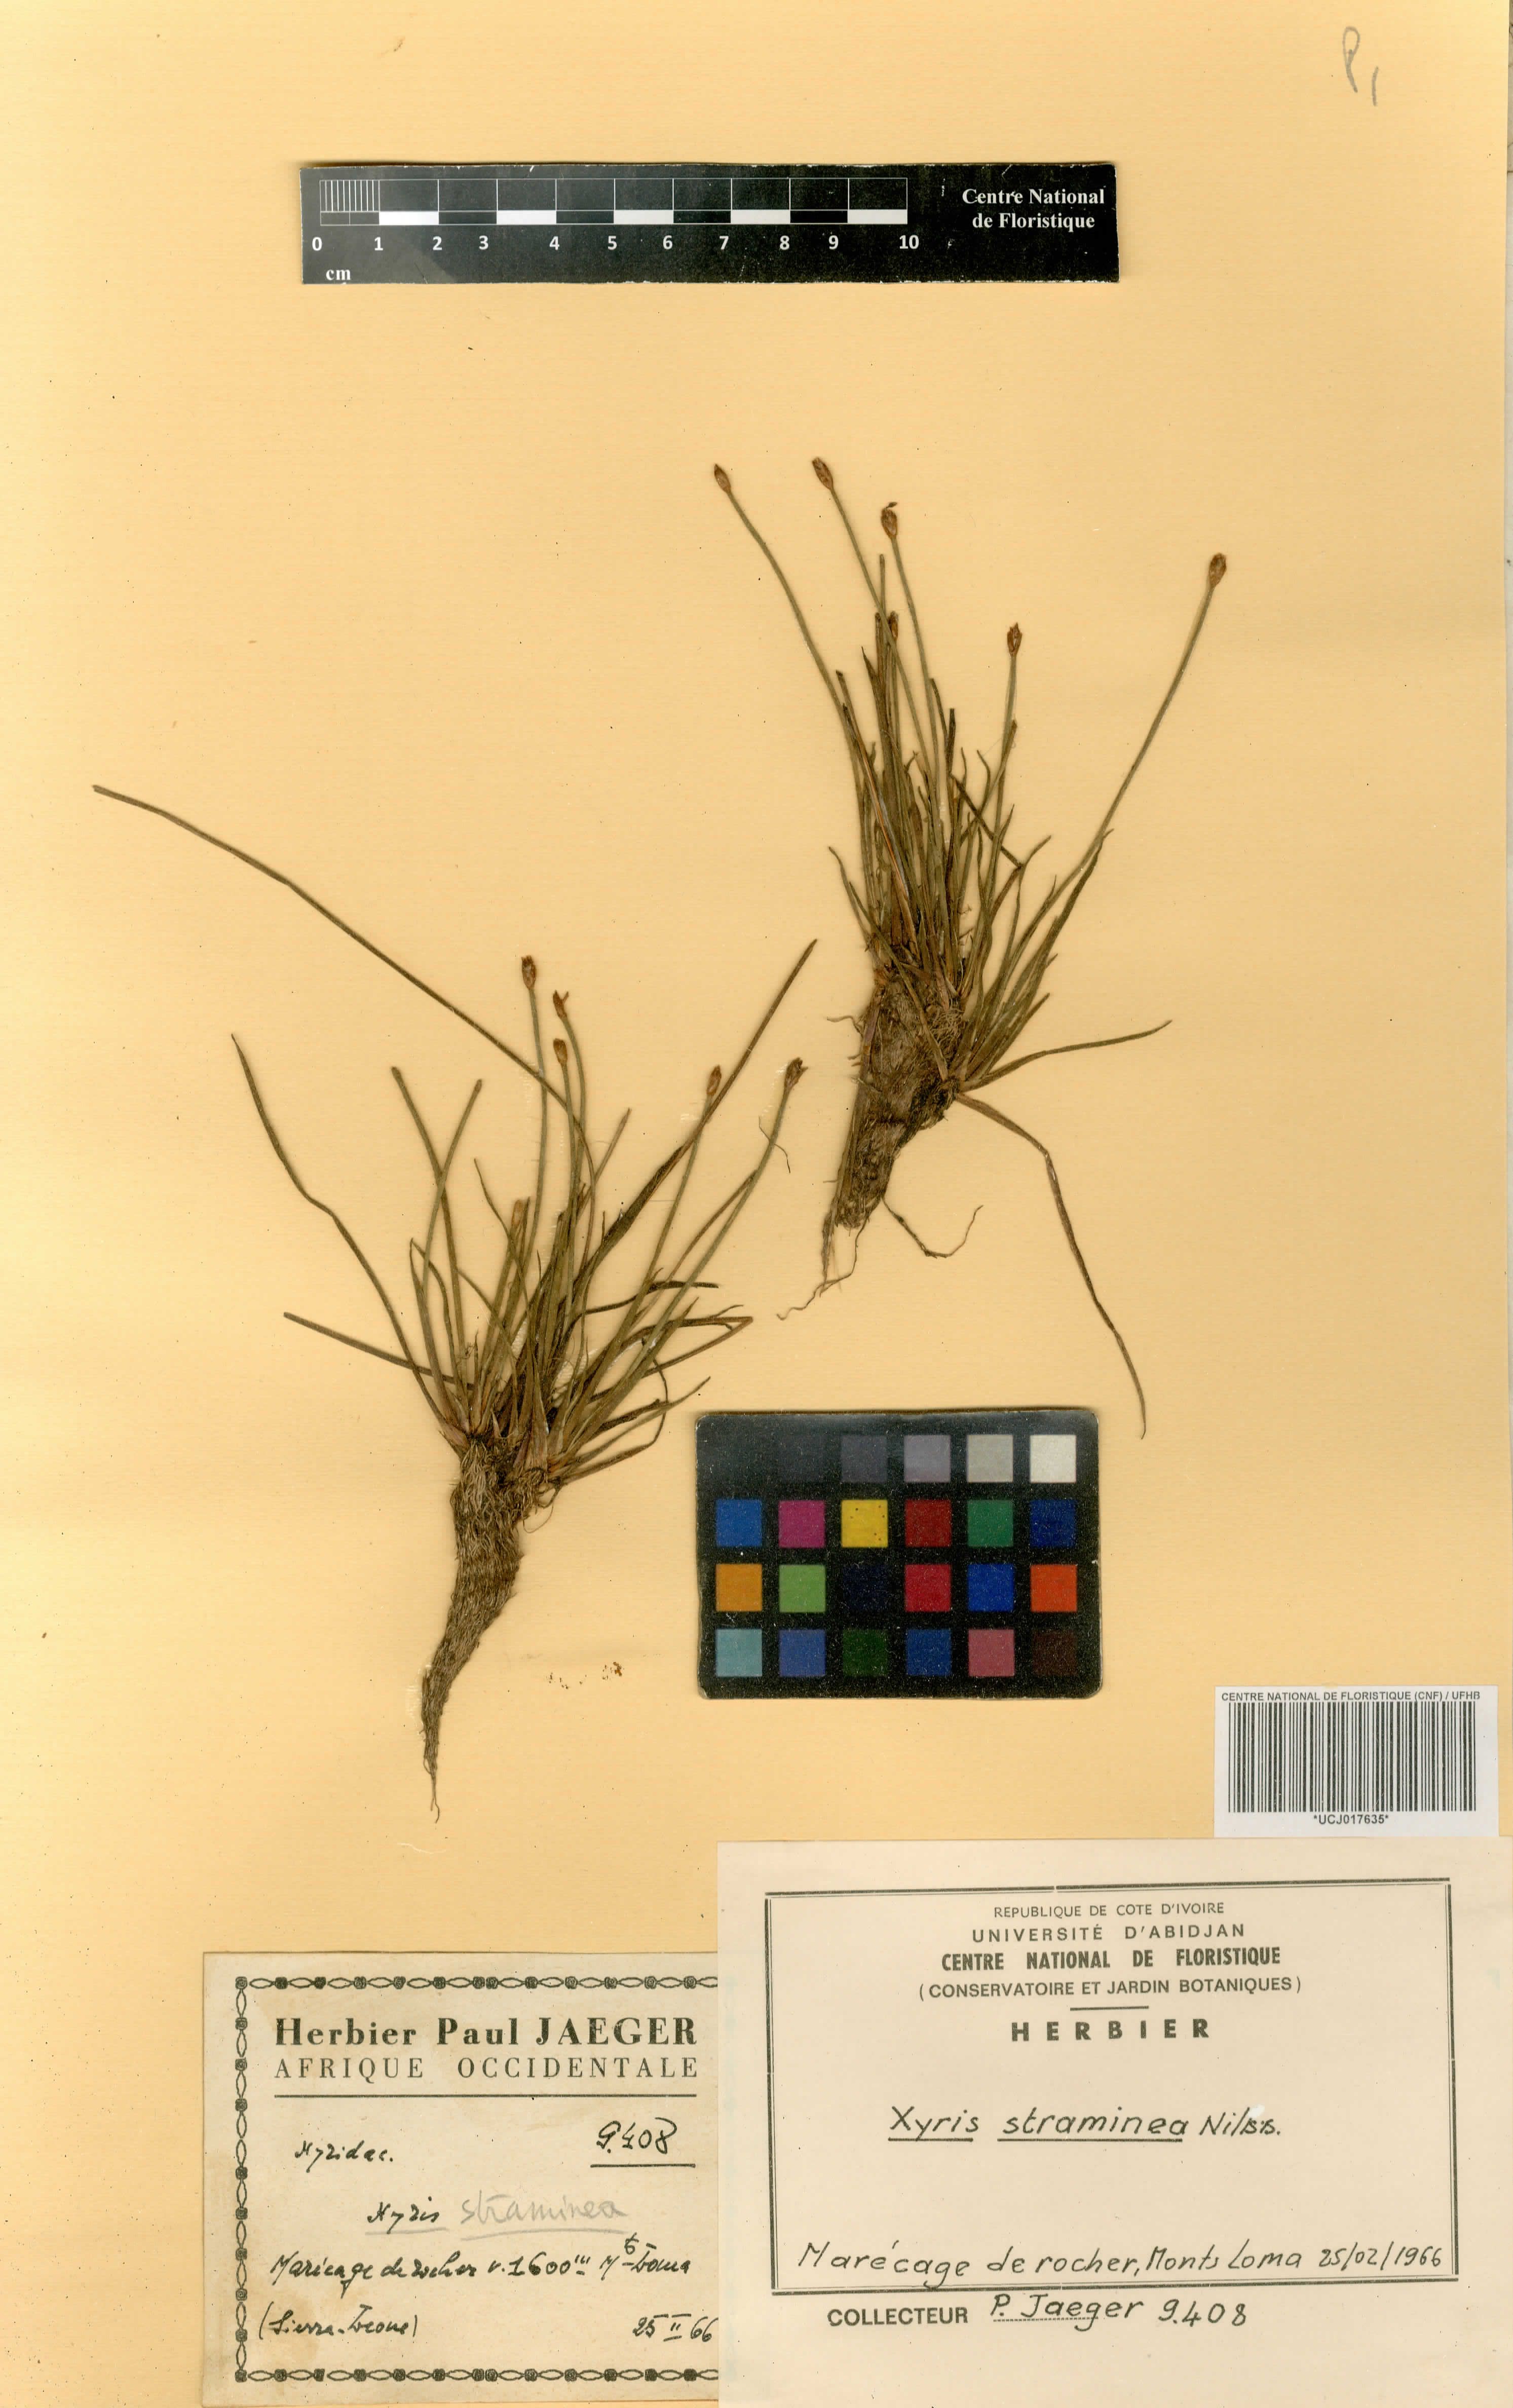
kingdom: Plantae
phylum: Tracheophyta
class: Liliopsida
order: Poales
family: Xyridaceae
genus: Xyris
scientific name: Xyris straminea
